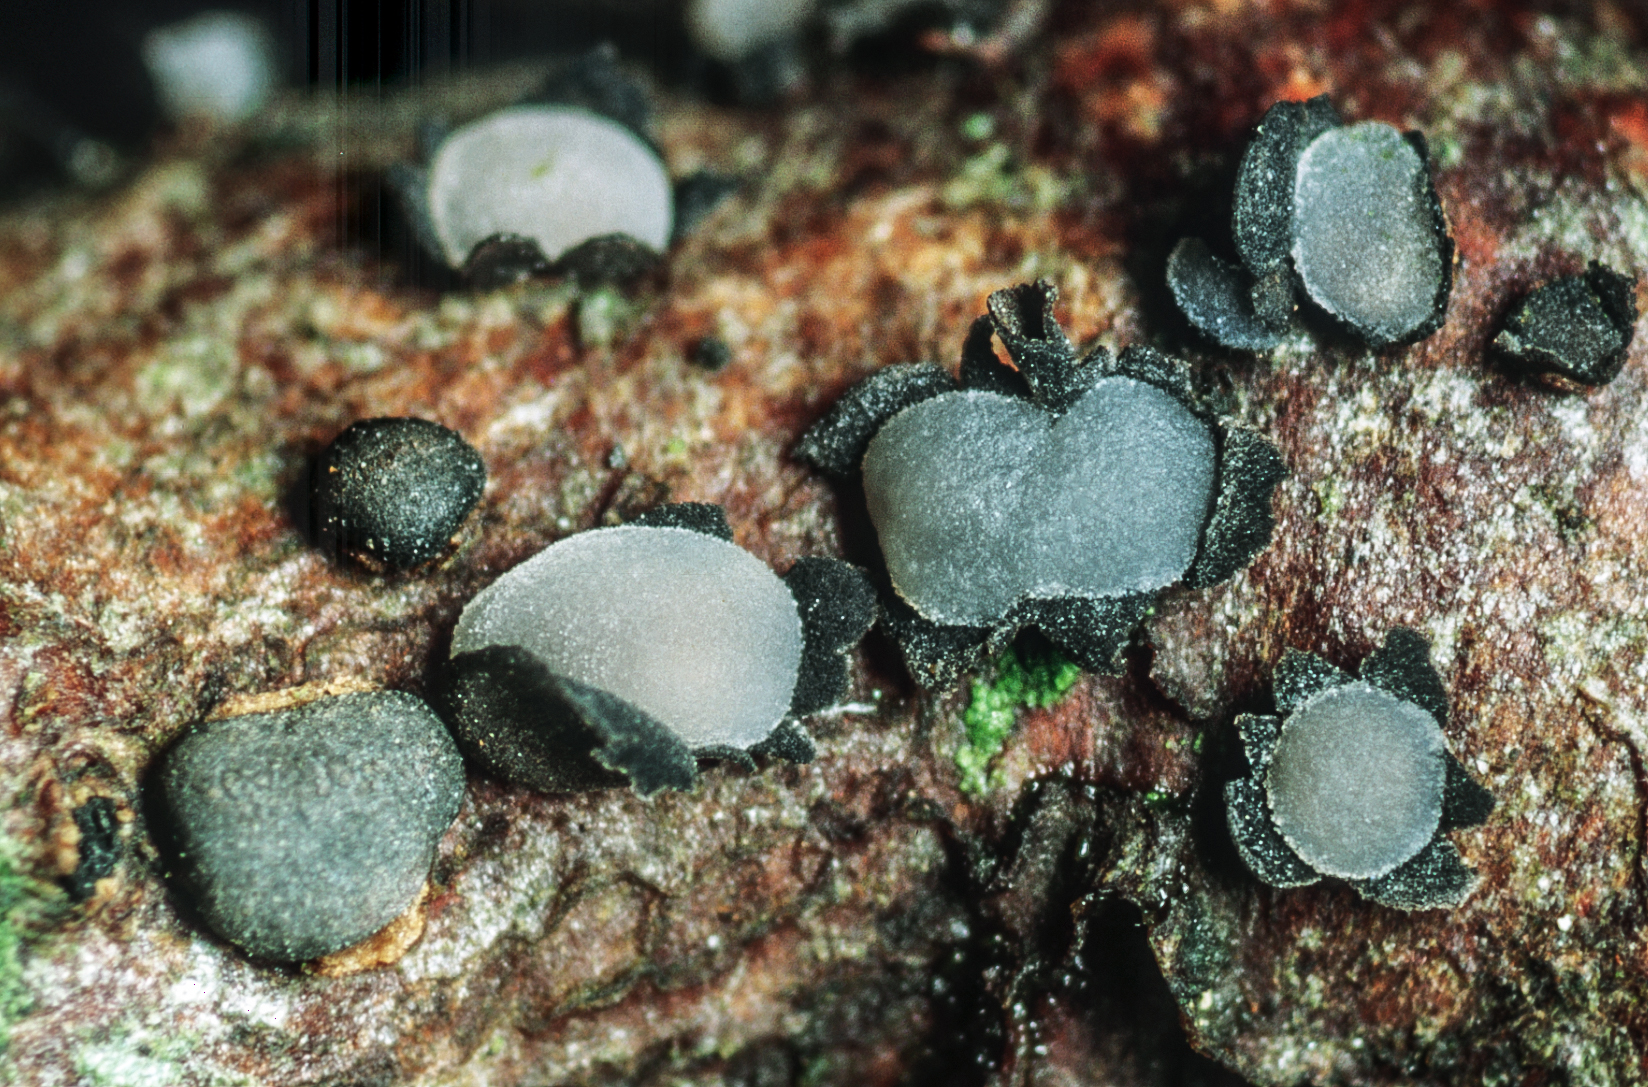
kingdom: Fungi
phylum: Ascomycota
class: Leotiomycetes
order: Phacidiales
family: Phacidiaceae
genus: Pseudophacidium
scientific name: Pseudophacidium ledi
